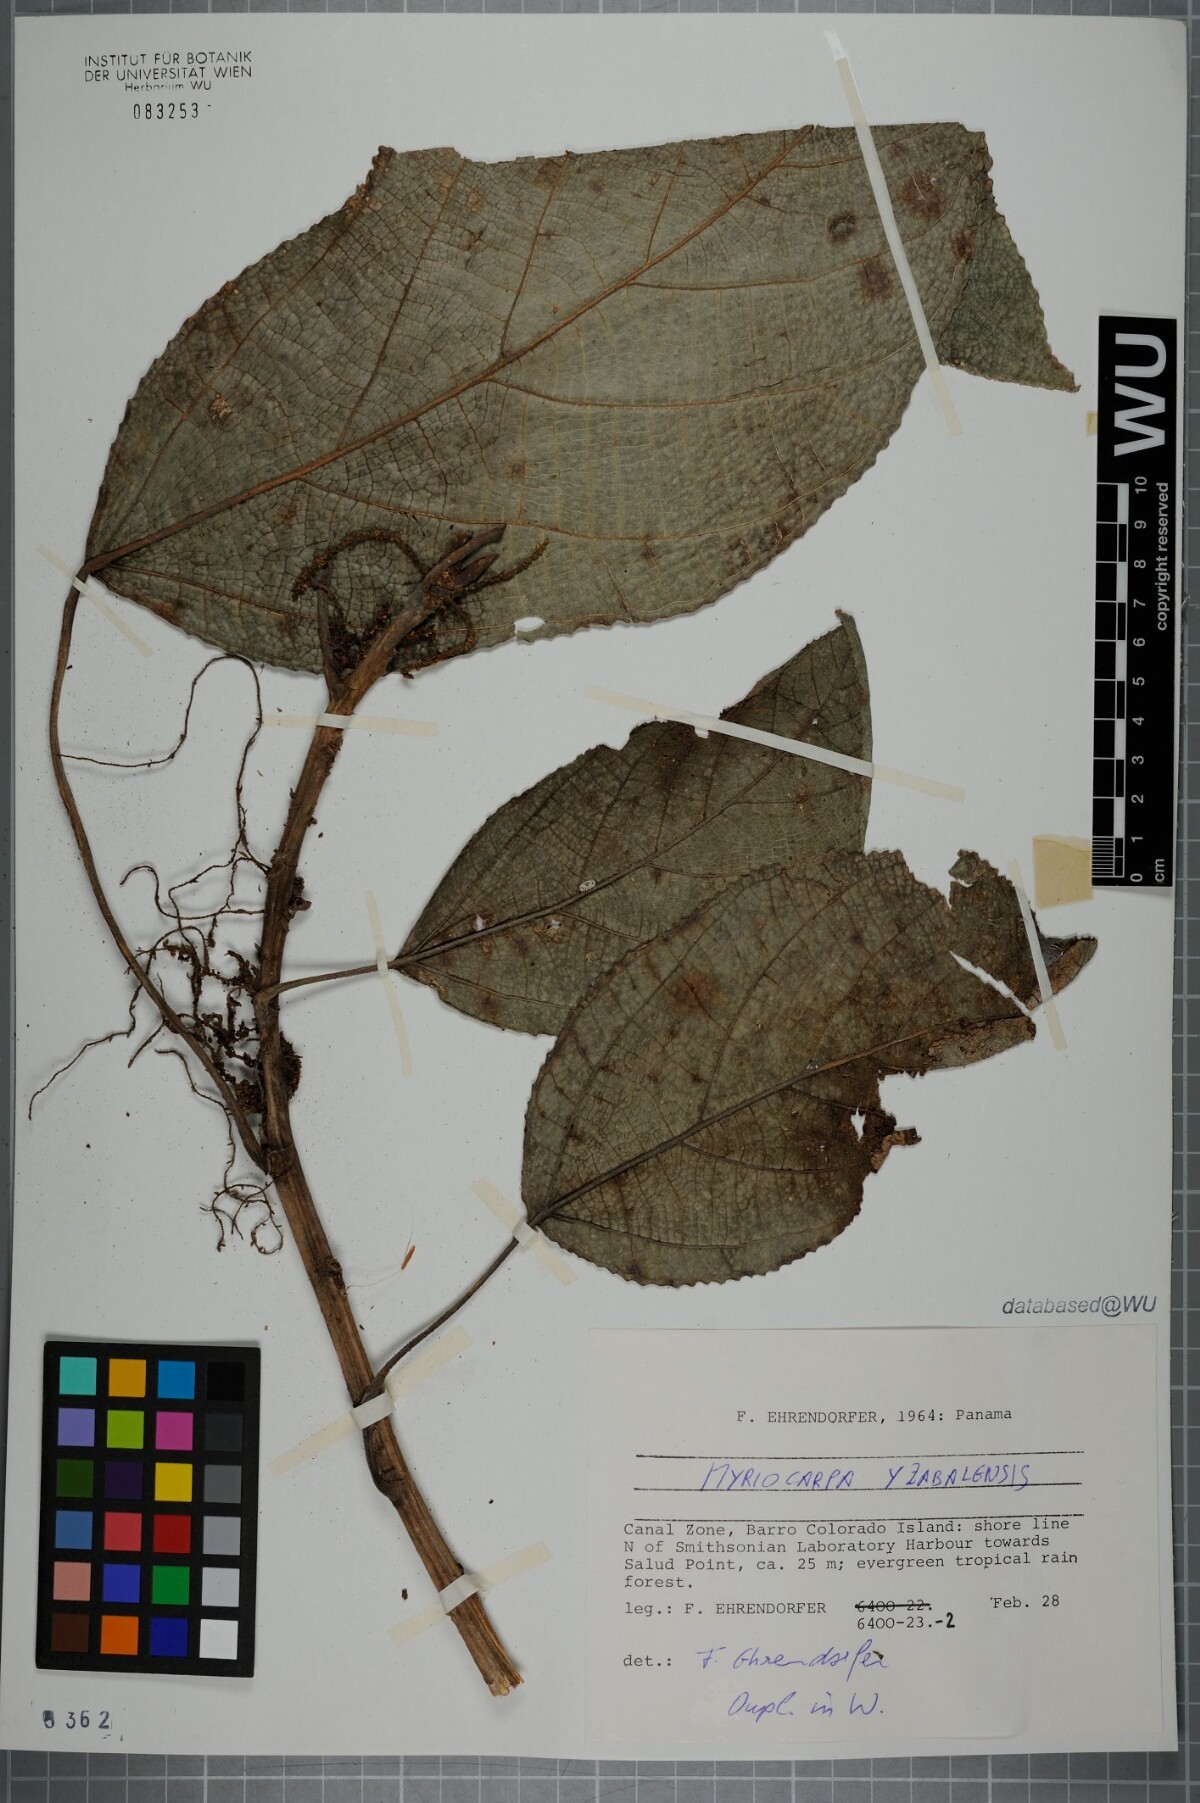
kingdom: Plantae
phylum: Tracheophyta
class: Magnoliopsida
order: Rosales
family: Urticaceae
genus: Myriocarpa
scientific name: Myriocarpa longipes
